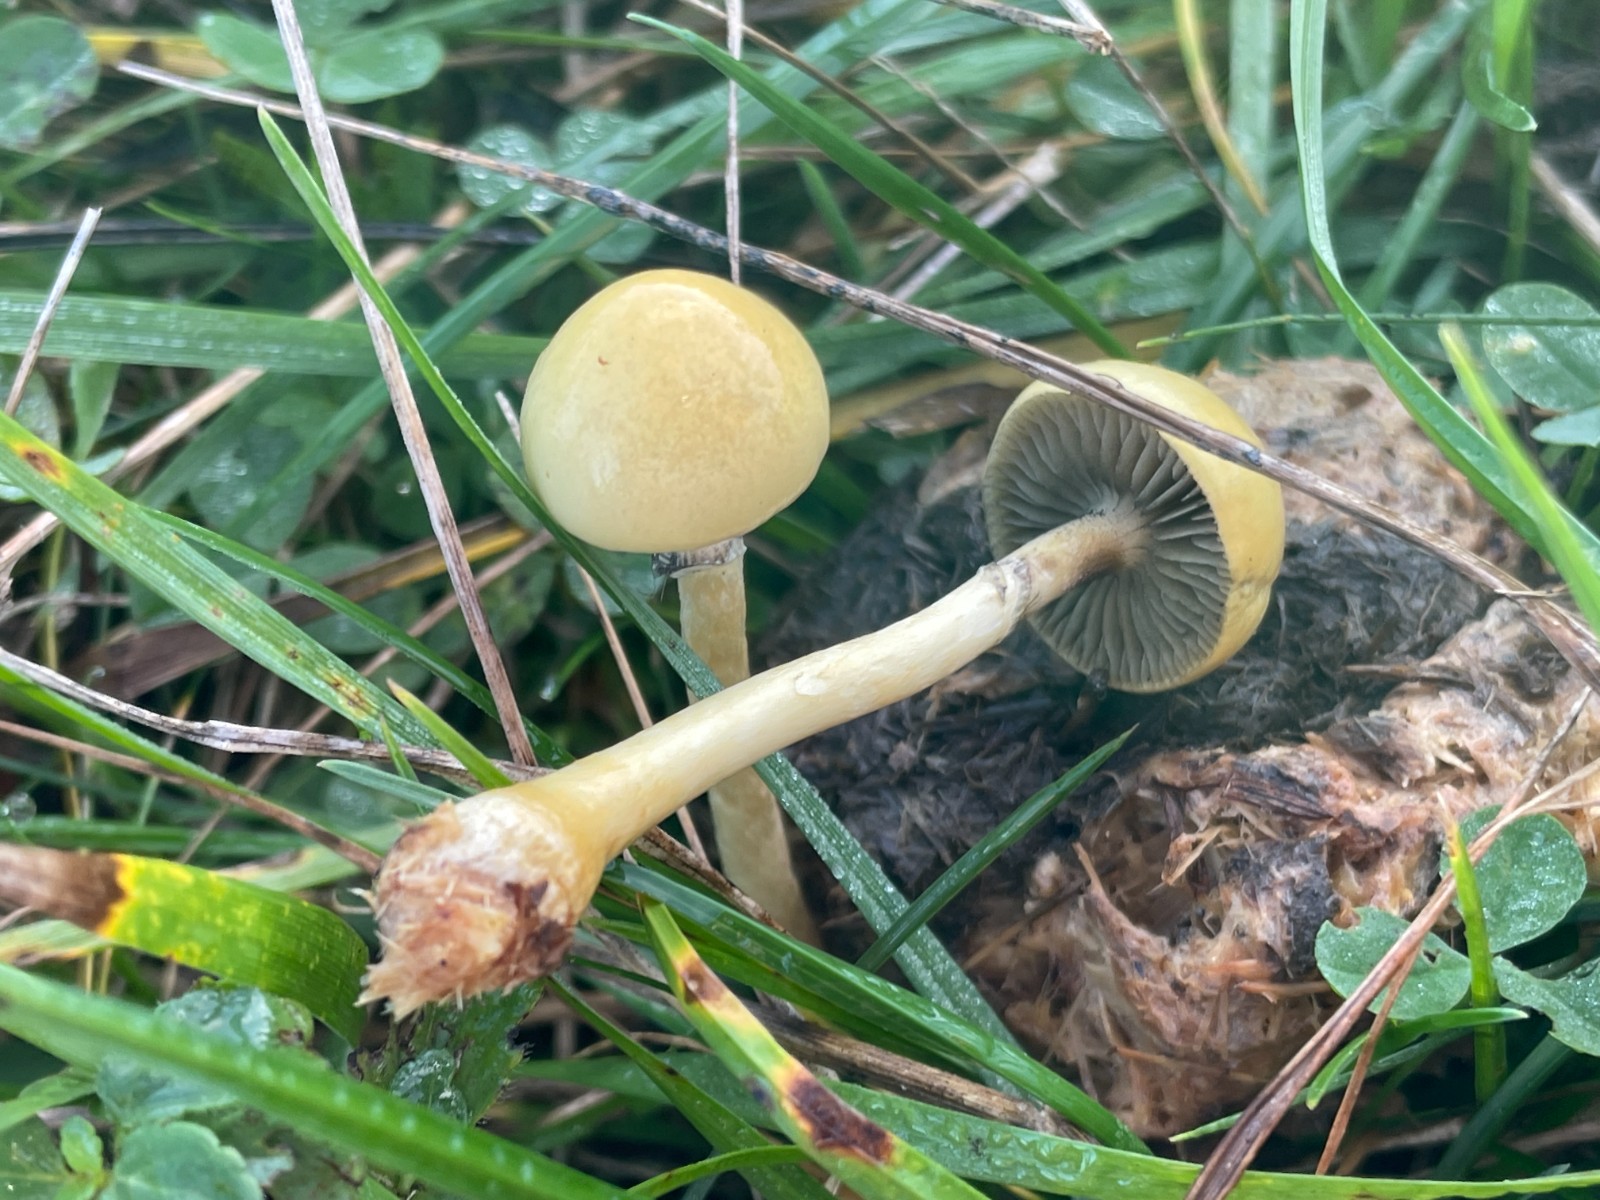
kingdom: Fungi
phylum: Basidiomycota
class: Agaricomycetes
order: Agaricales
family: Strophariaceae
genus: Protostropharia
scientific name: Protostropharia semiglobata
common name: halvkugleformet bredblad
